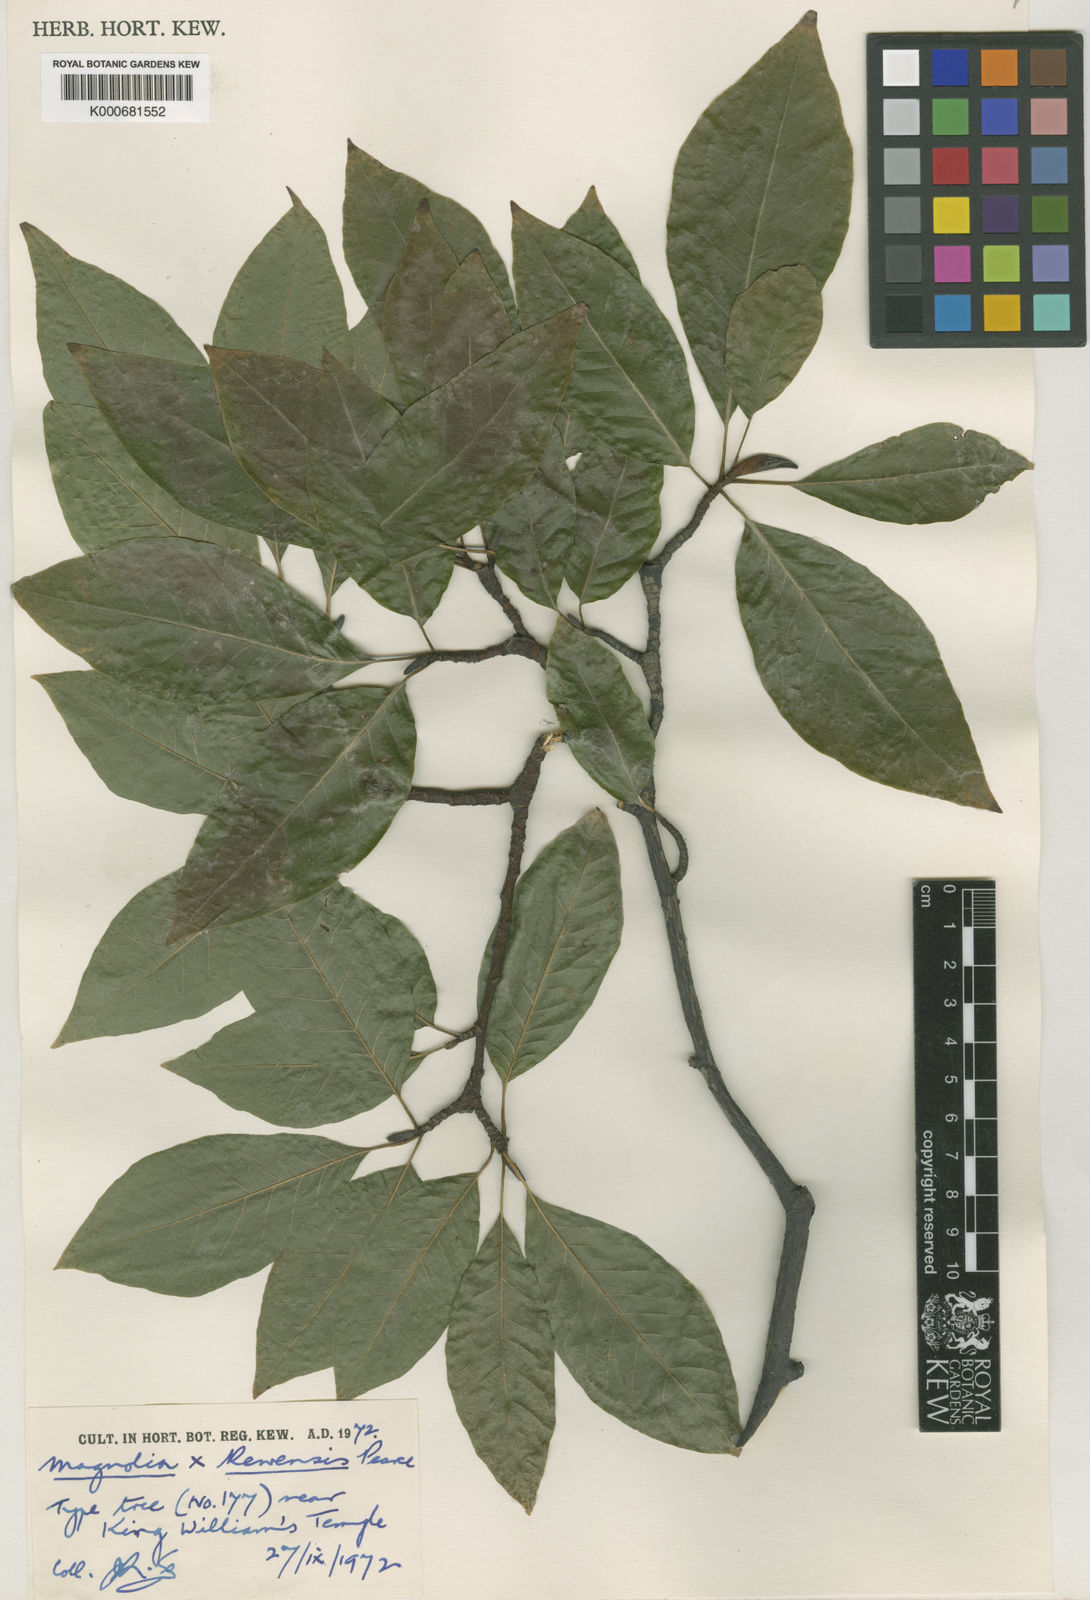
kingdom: Plantae
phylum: Tracheophyta
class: Magnoliopsida
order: Magnoliales
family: Magnoliaceae
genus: Magnolia
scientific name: Magnolia salicifolia
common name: Anise magnolia
